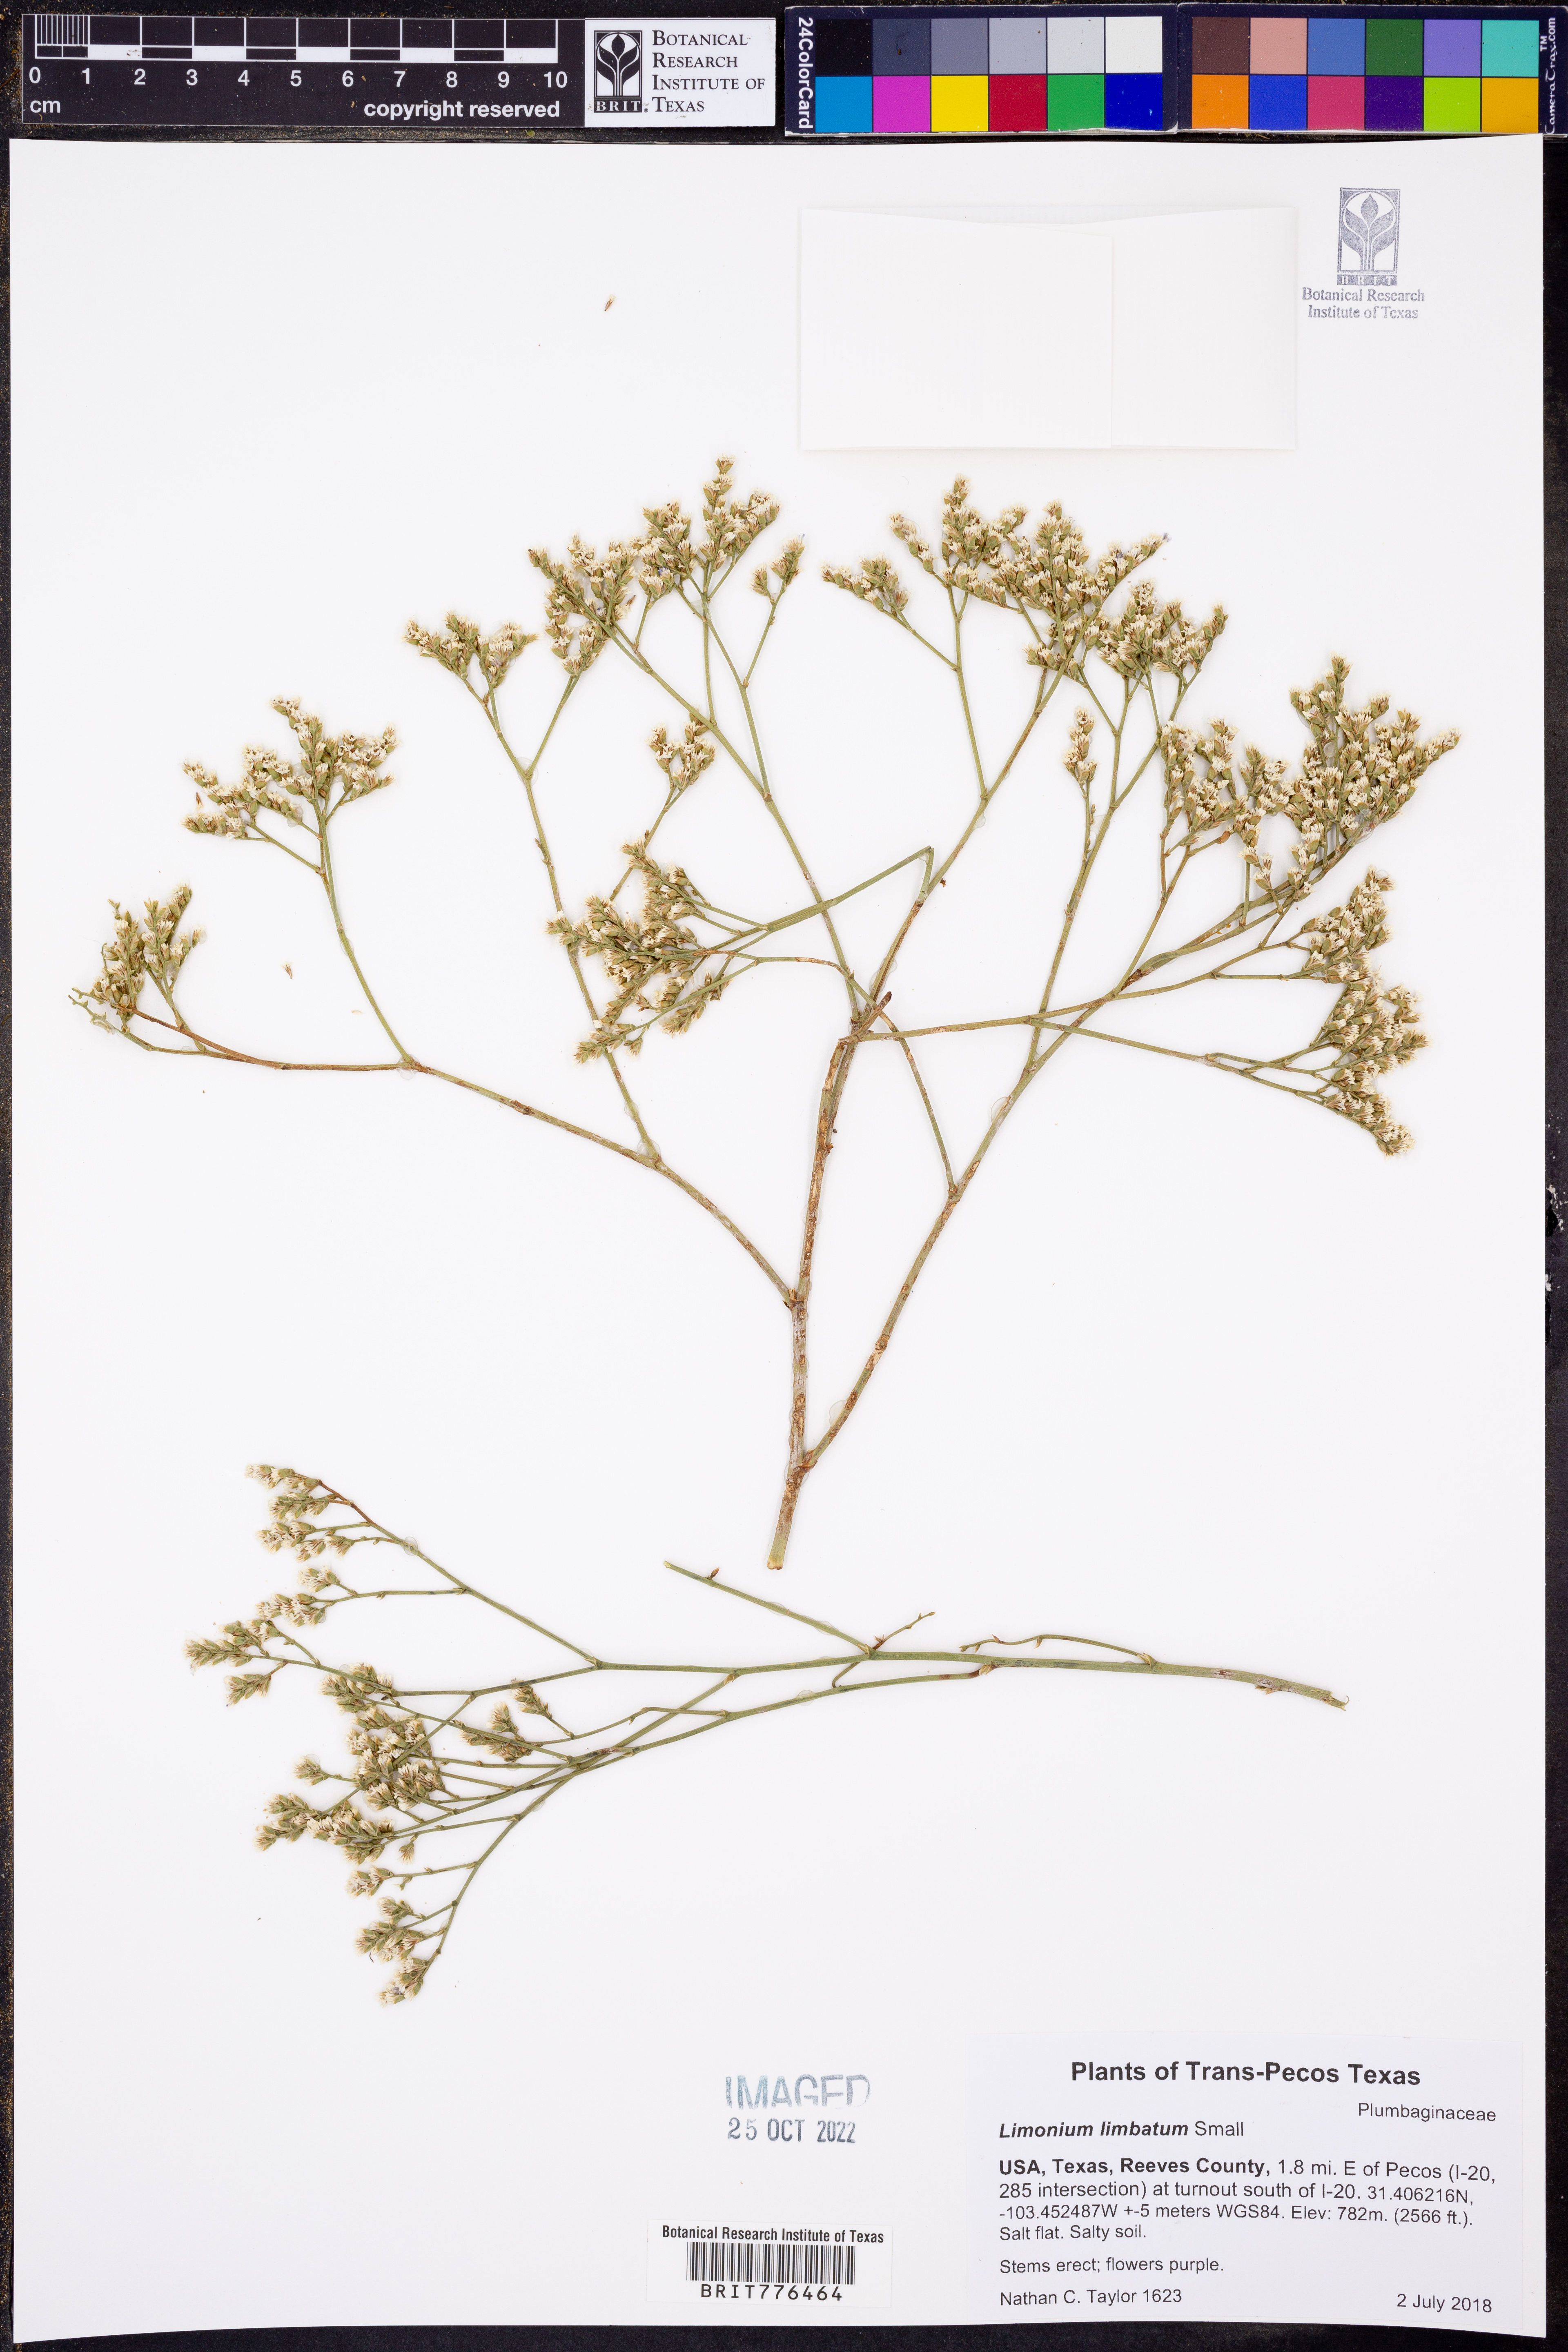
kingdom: Plantae
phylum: Tracheophyta
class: Magnoliopsida
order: Caryophyllales
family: Plumbaginaceae
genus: Limonium
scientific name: Limonium limbatum
